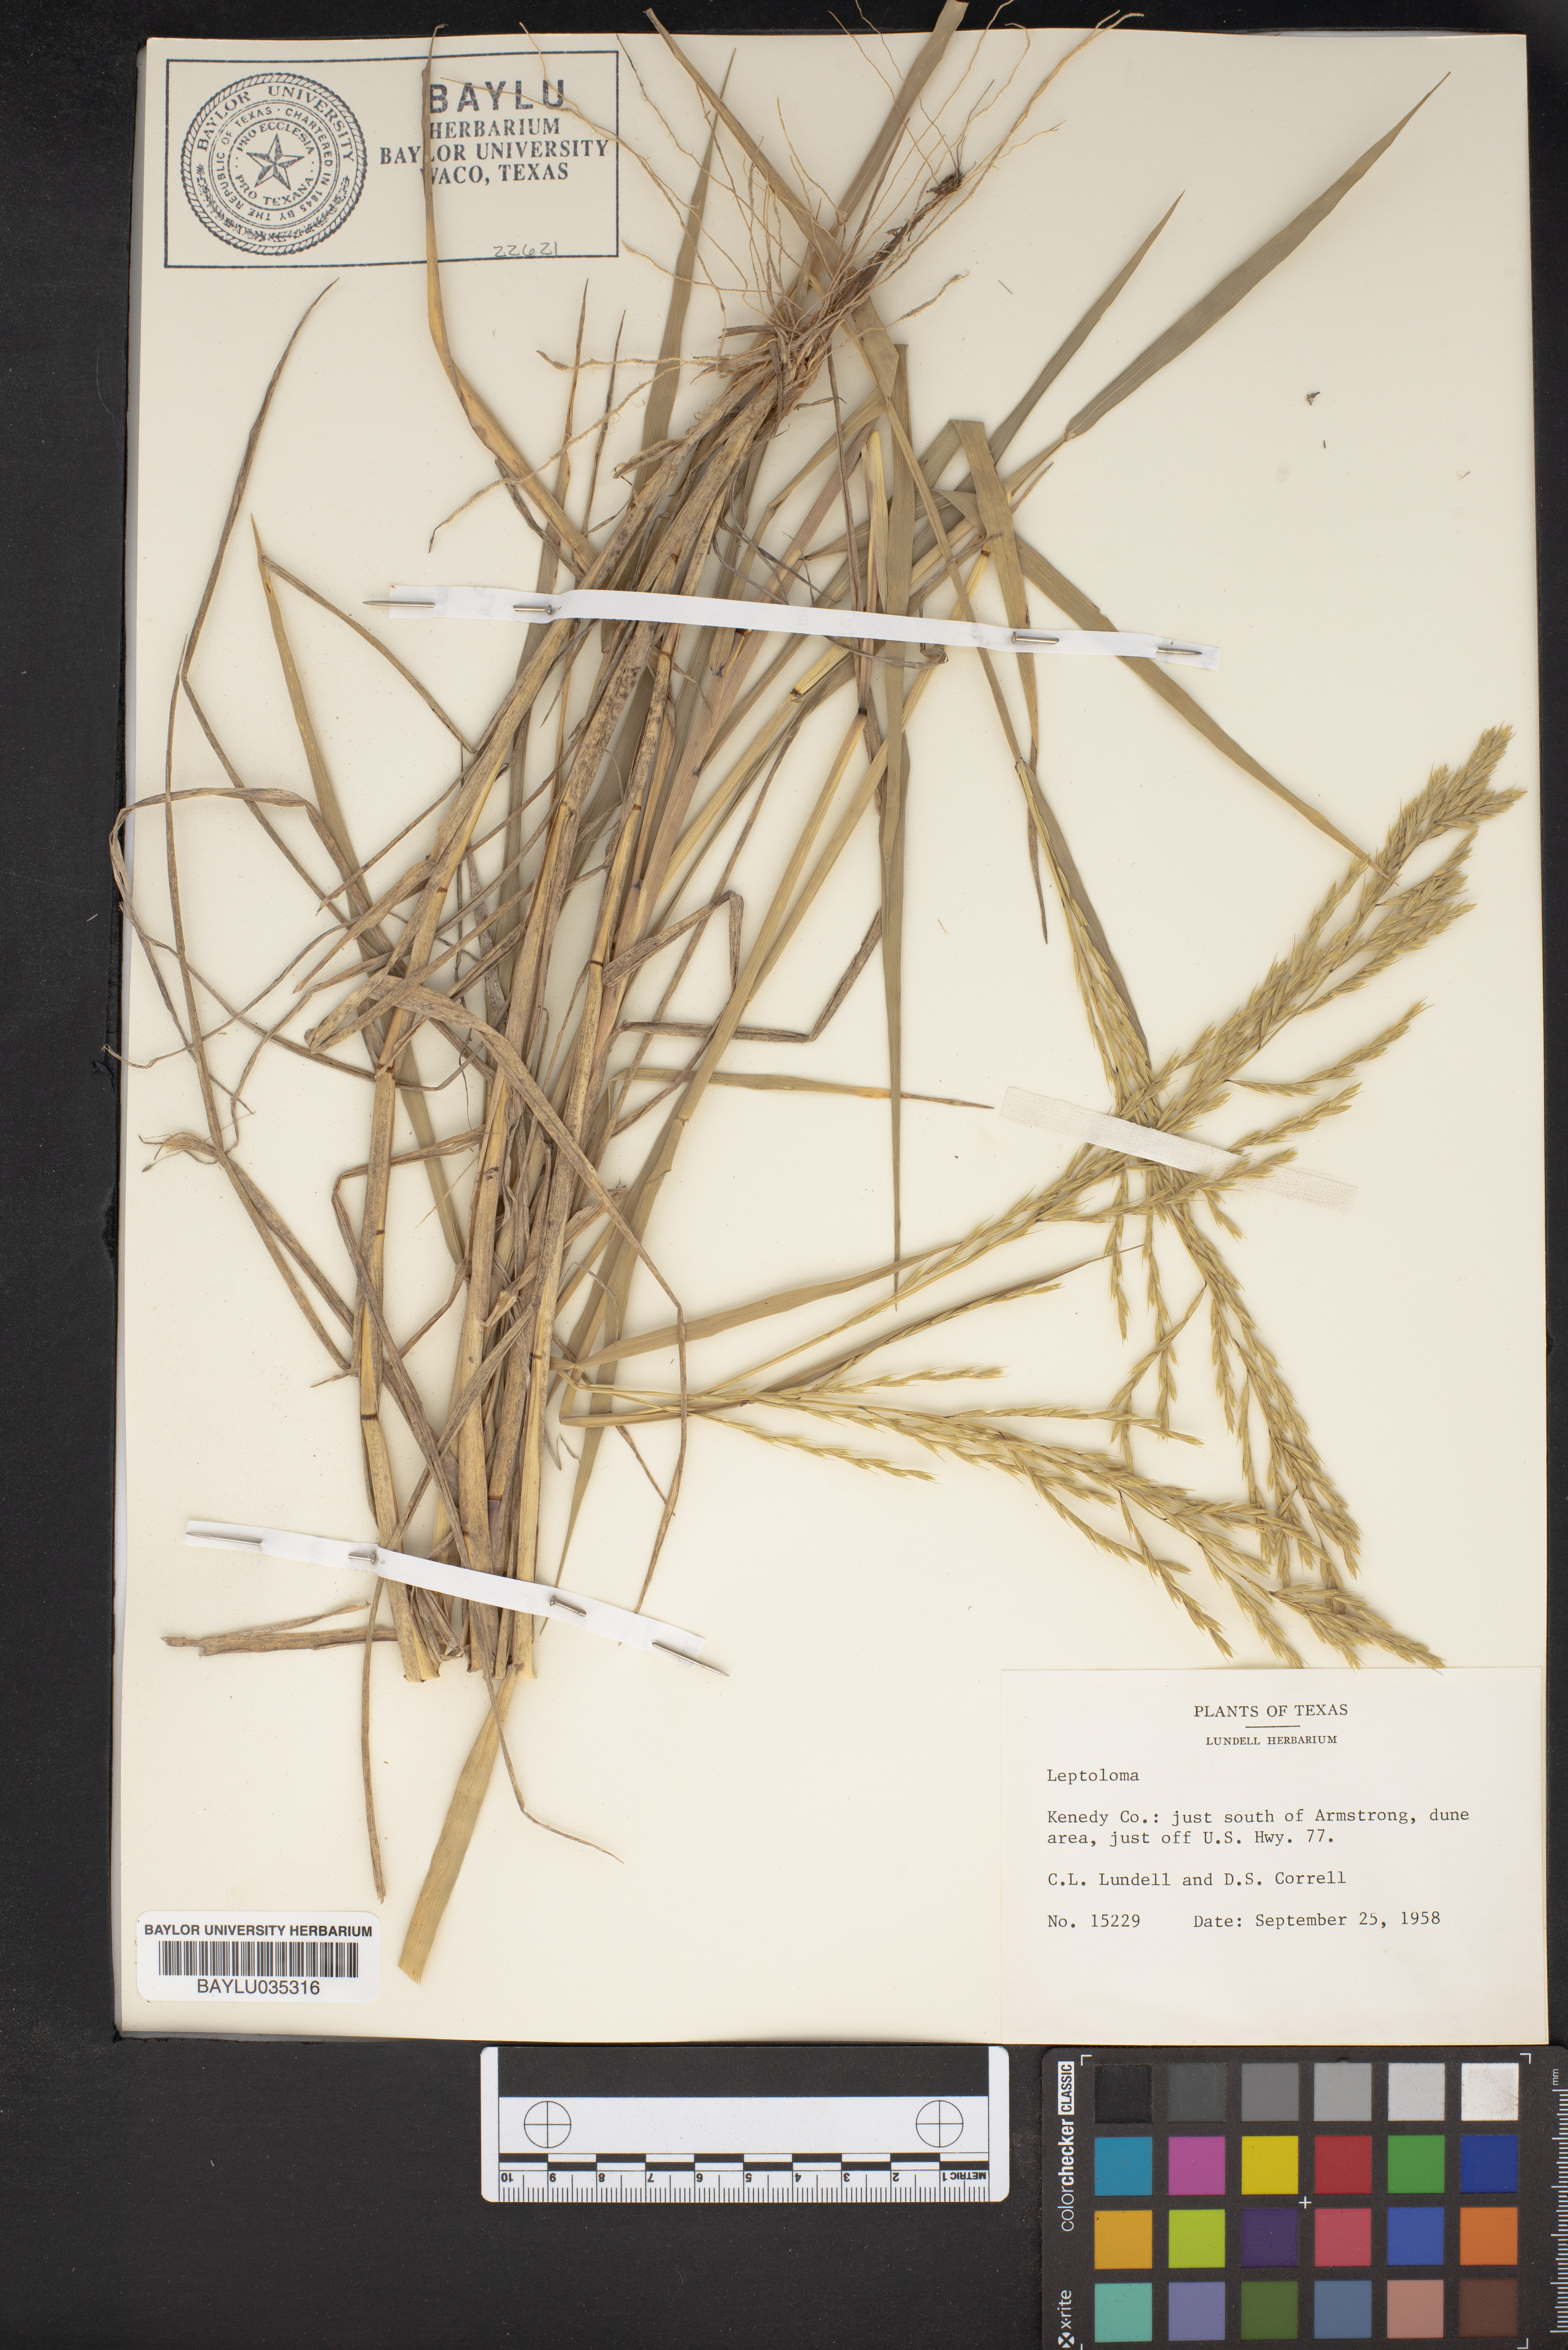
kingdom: Plantae
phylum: Tracheophyta
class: Liliopsida
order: Poales
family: Poaceae
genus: Digitaria
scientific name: Digitaria
